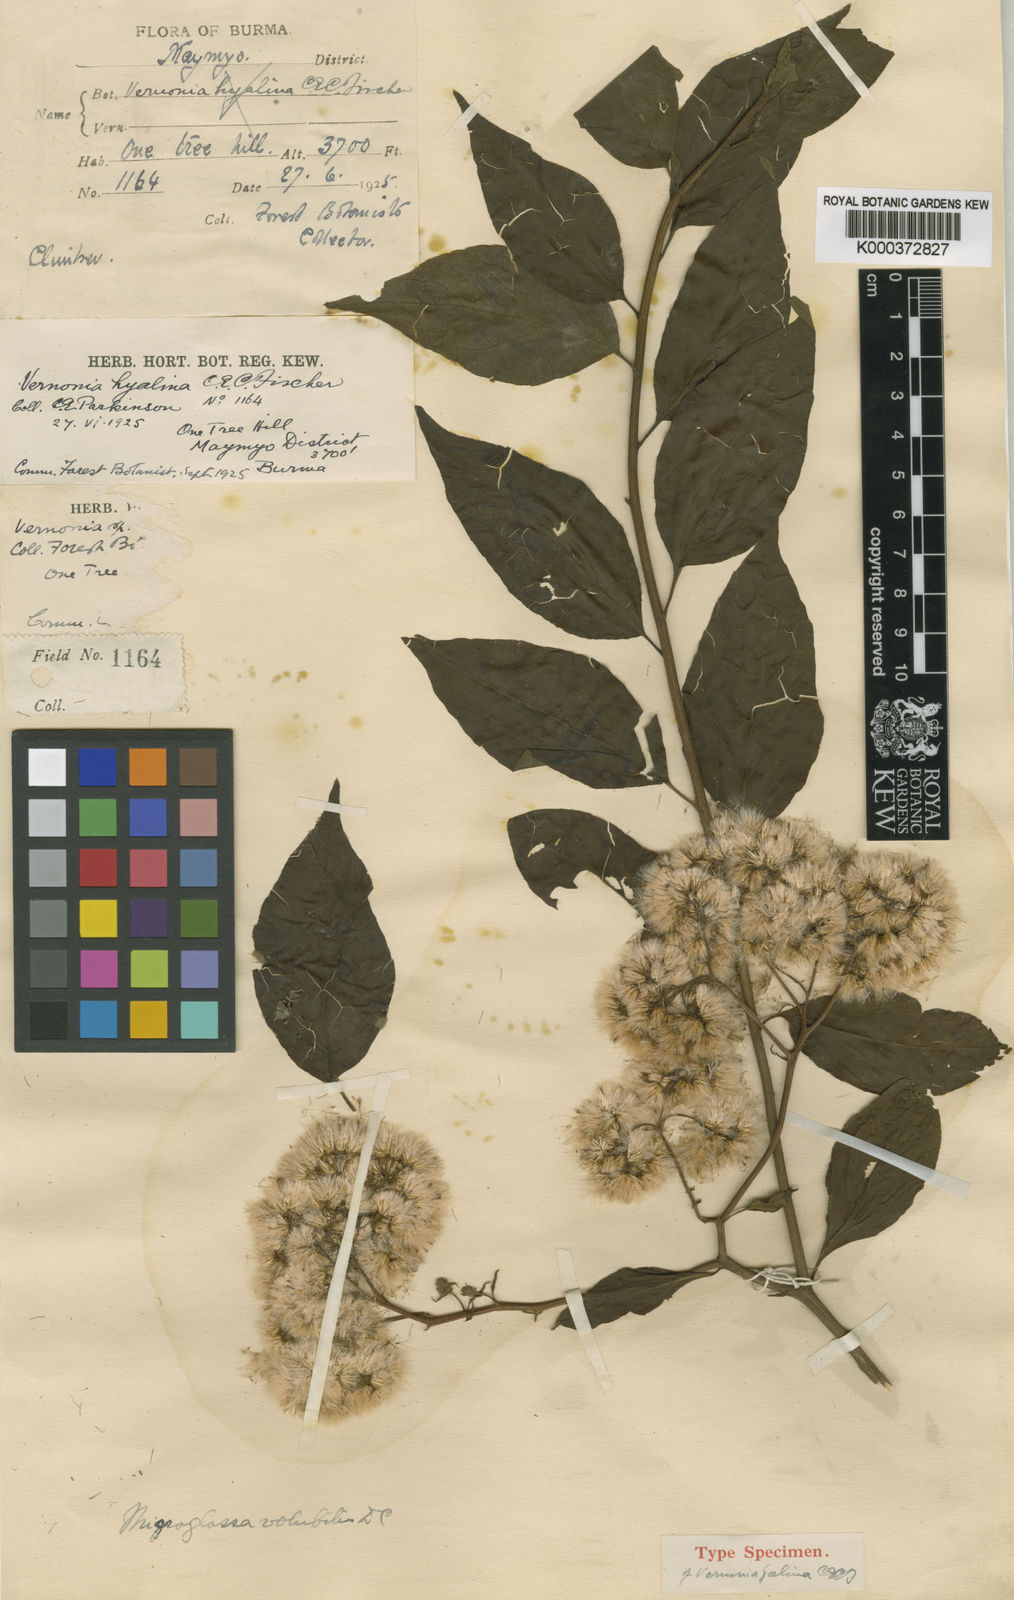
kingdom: Plantae
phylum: Tracheophyta
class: Magnoliopsida
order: Asterales
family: Asteraceae
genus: Microglossa
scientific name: Microglossa pyrifolia
